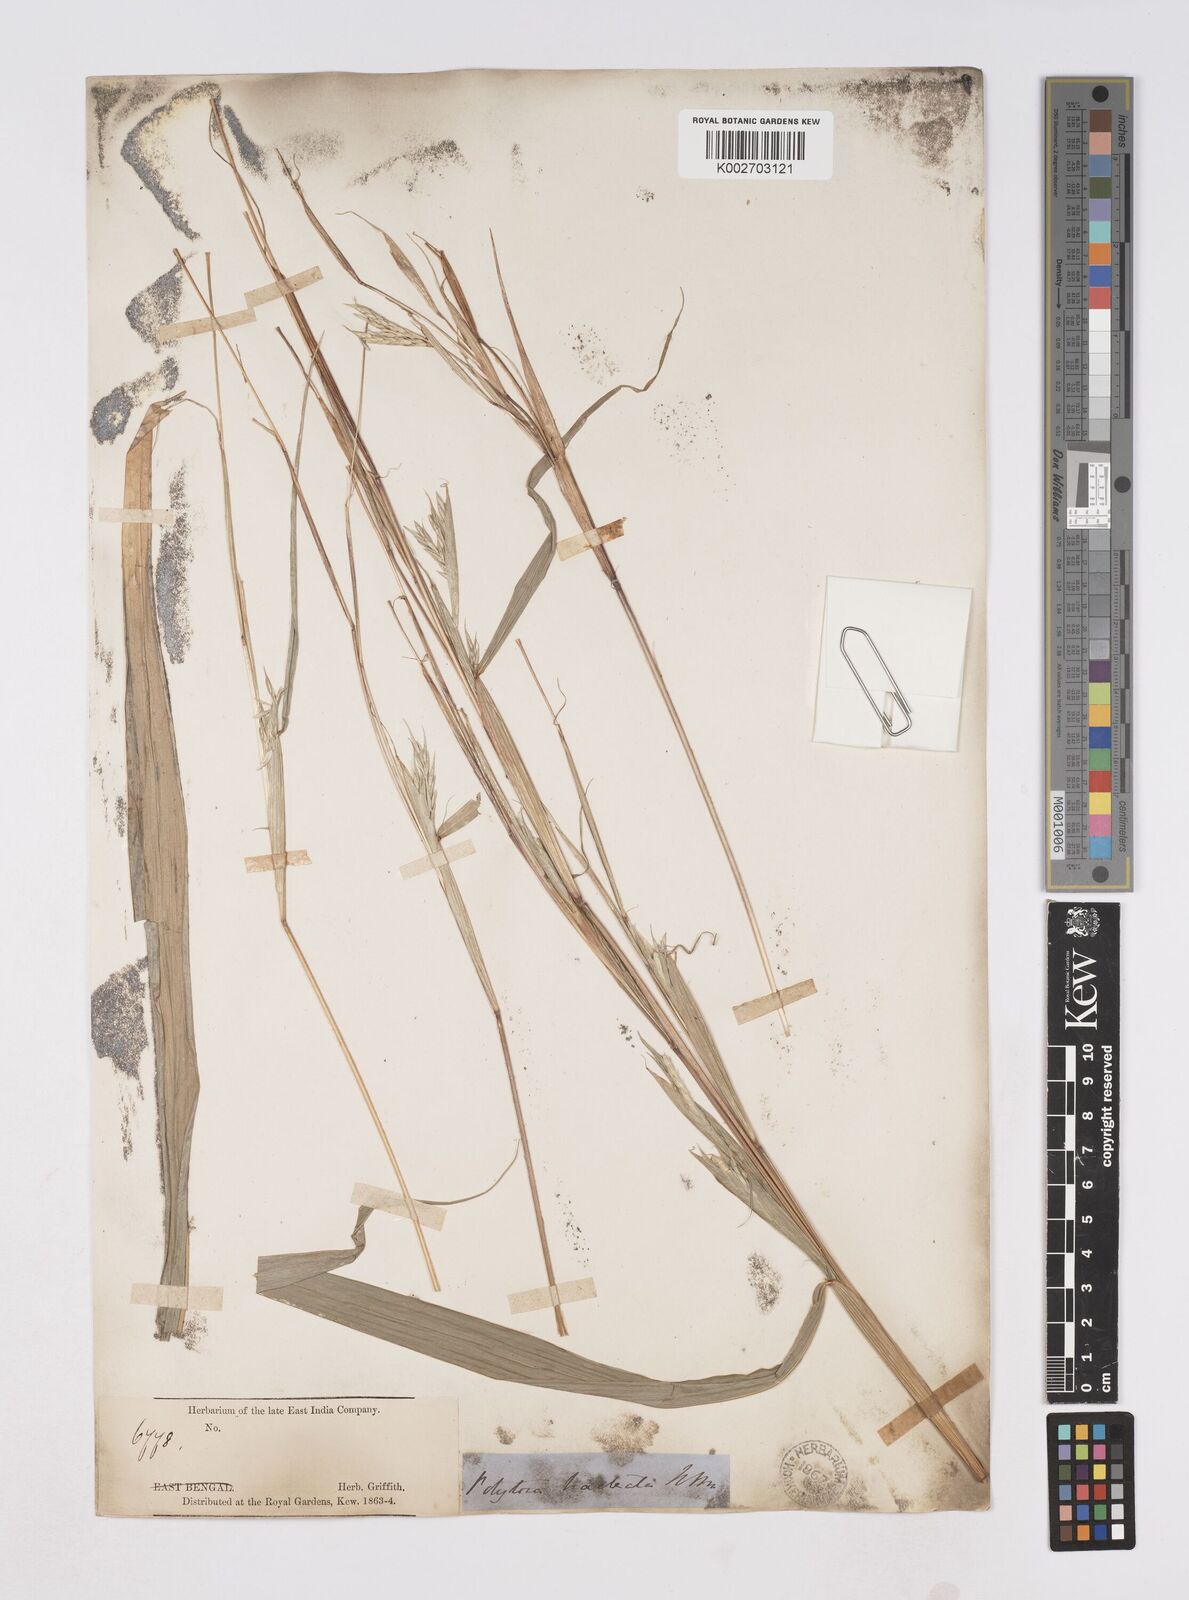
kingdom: Plantae
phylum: Tracheophyta
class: Liliopsida
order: Poales
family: Poaceae
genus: Polytoca
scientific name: Polytoca digitata
